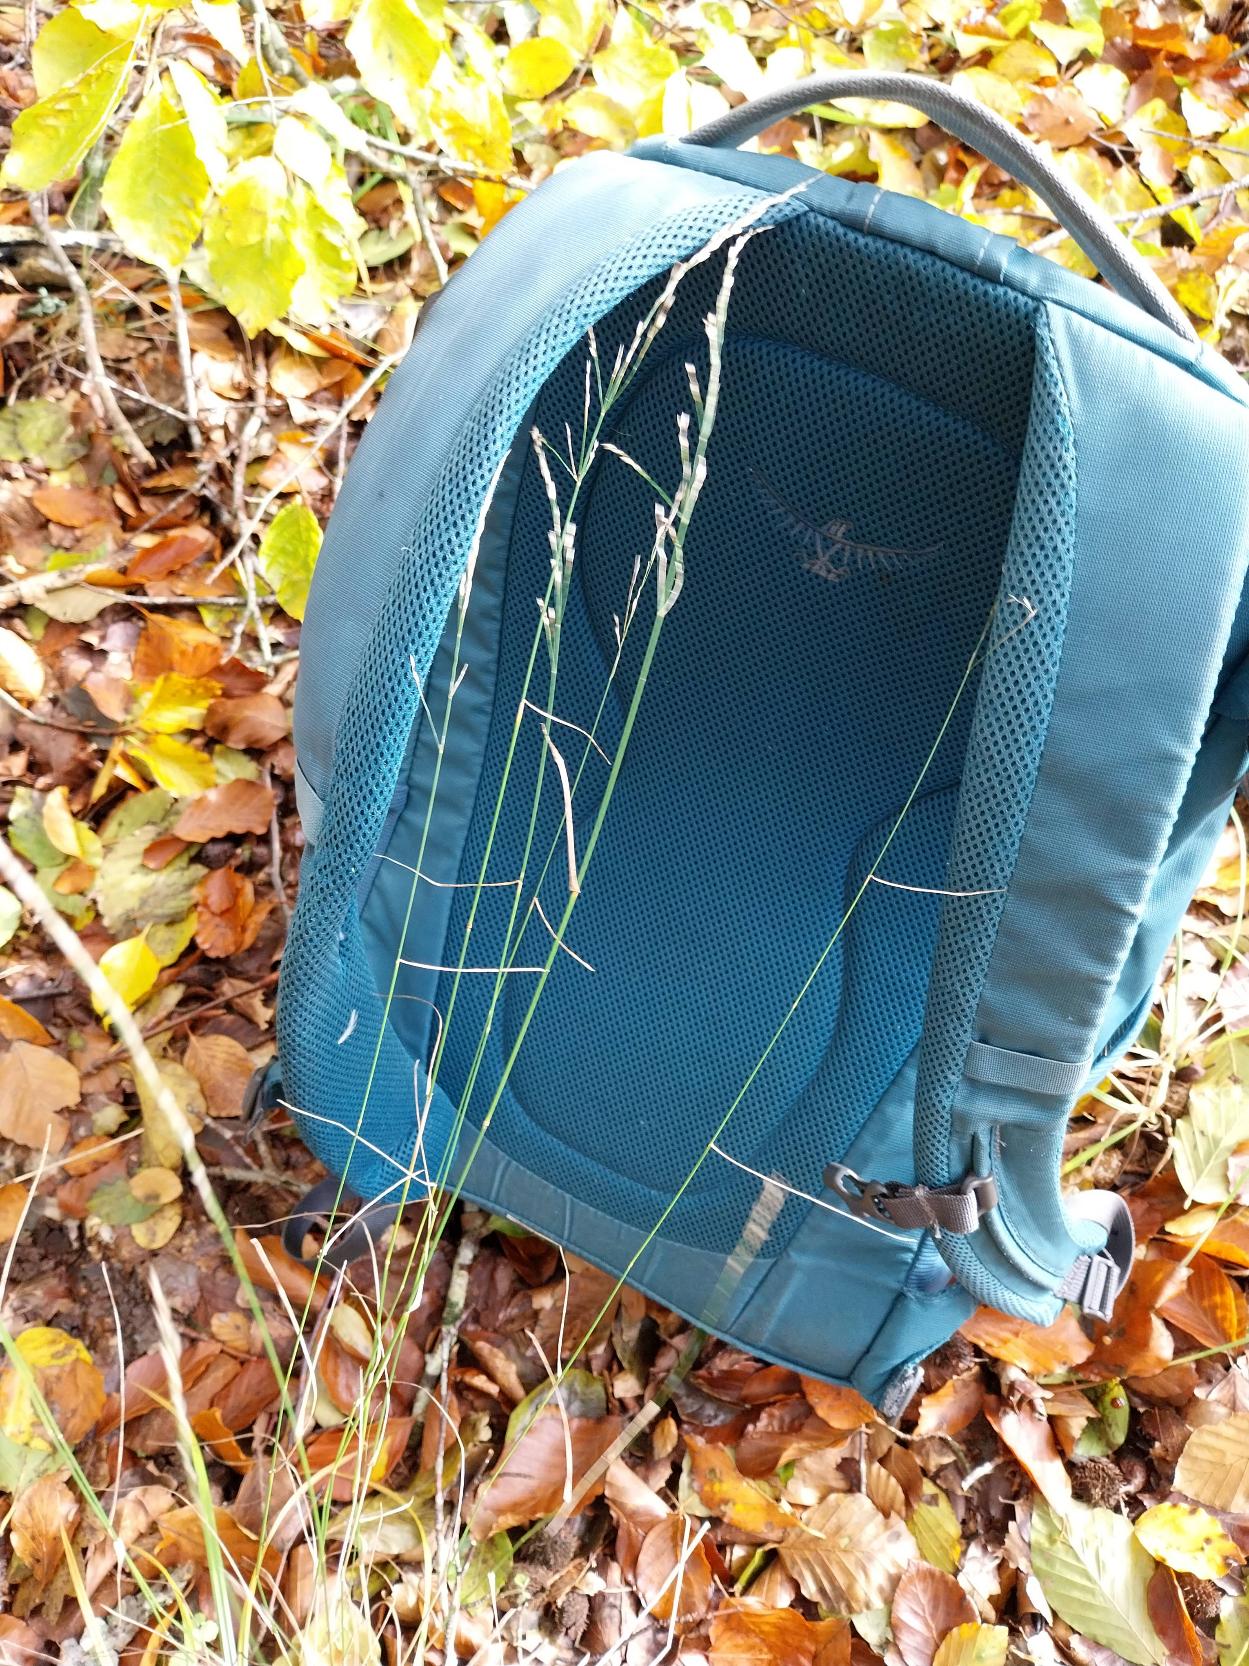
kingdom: Plantae
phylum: Tracheophyta
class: Liliopsida
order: Poales
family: Poaceae
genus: Poa
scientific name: Poa nemoralis
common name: Lund-rapgræs
